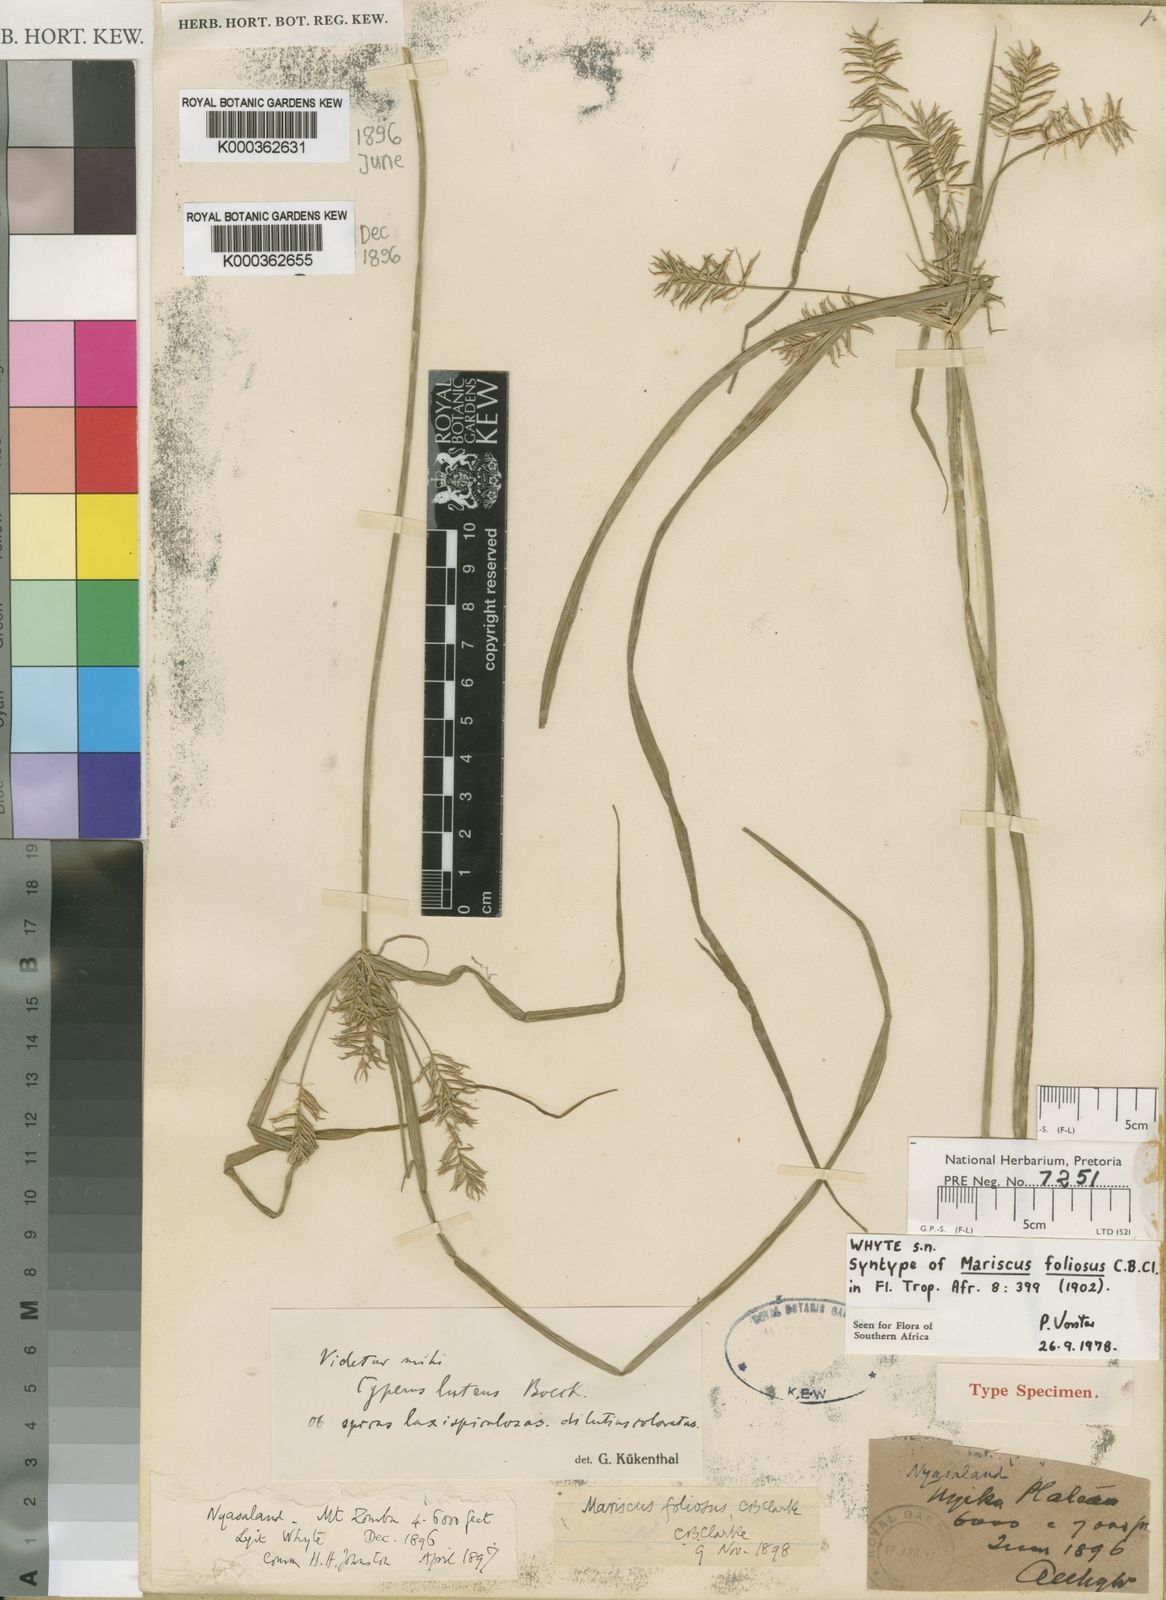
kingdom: Plantae
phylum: Tracheophyta
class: Liliopsida
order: Poales
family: Cyperaceae
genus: Cyperus
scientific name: Cyperus luteus
